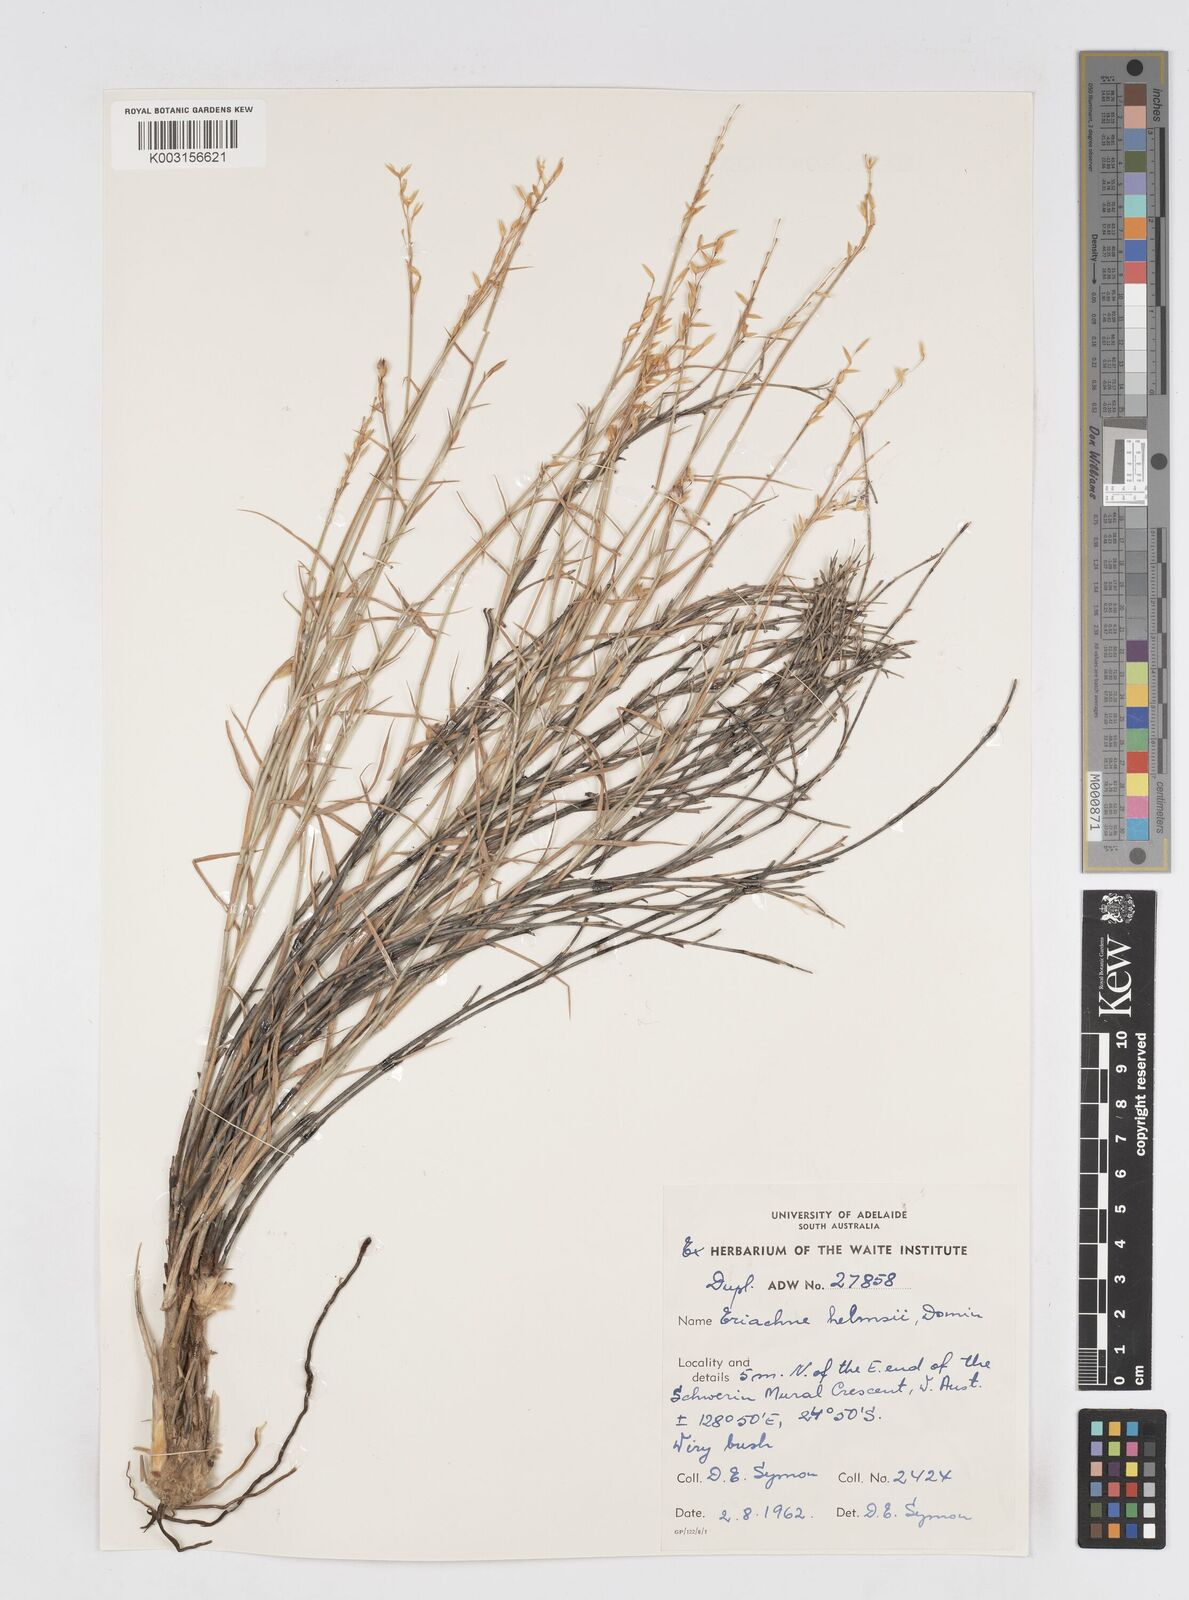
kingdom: Plantae
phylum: Tracheophyta
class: Liliopsida
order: Poales
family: Poaceae
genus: Eriachne
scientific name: Eriachne helmsii
